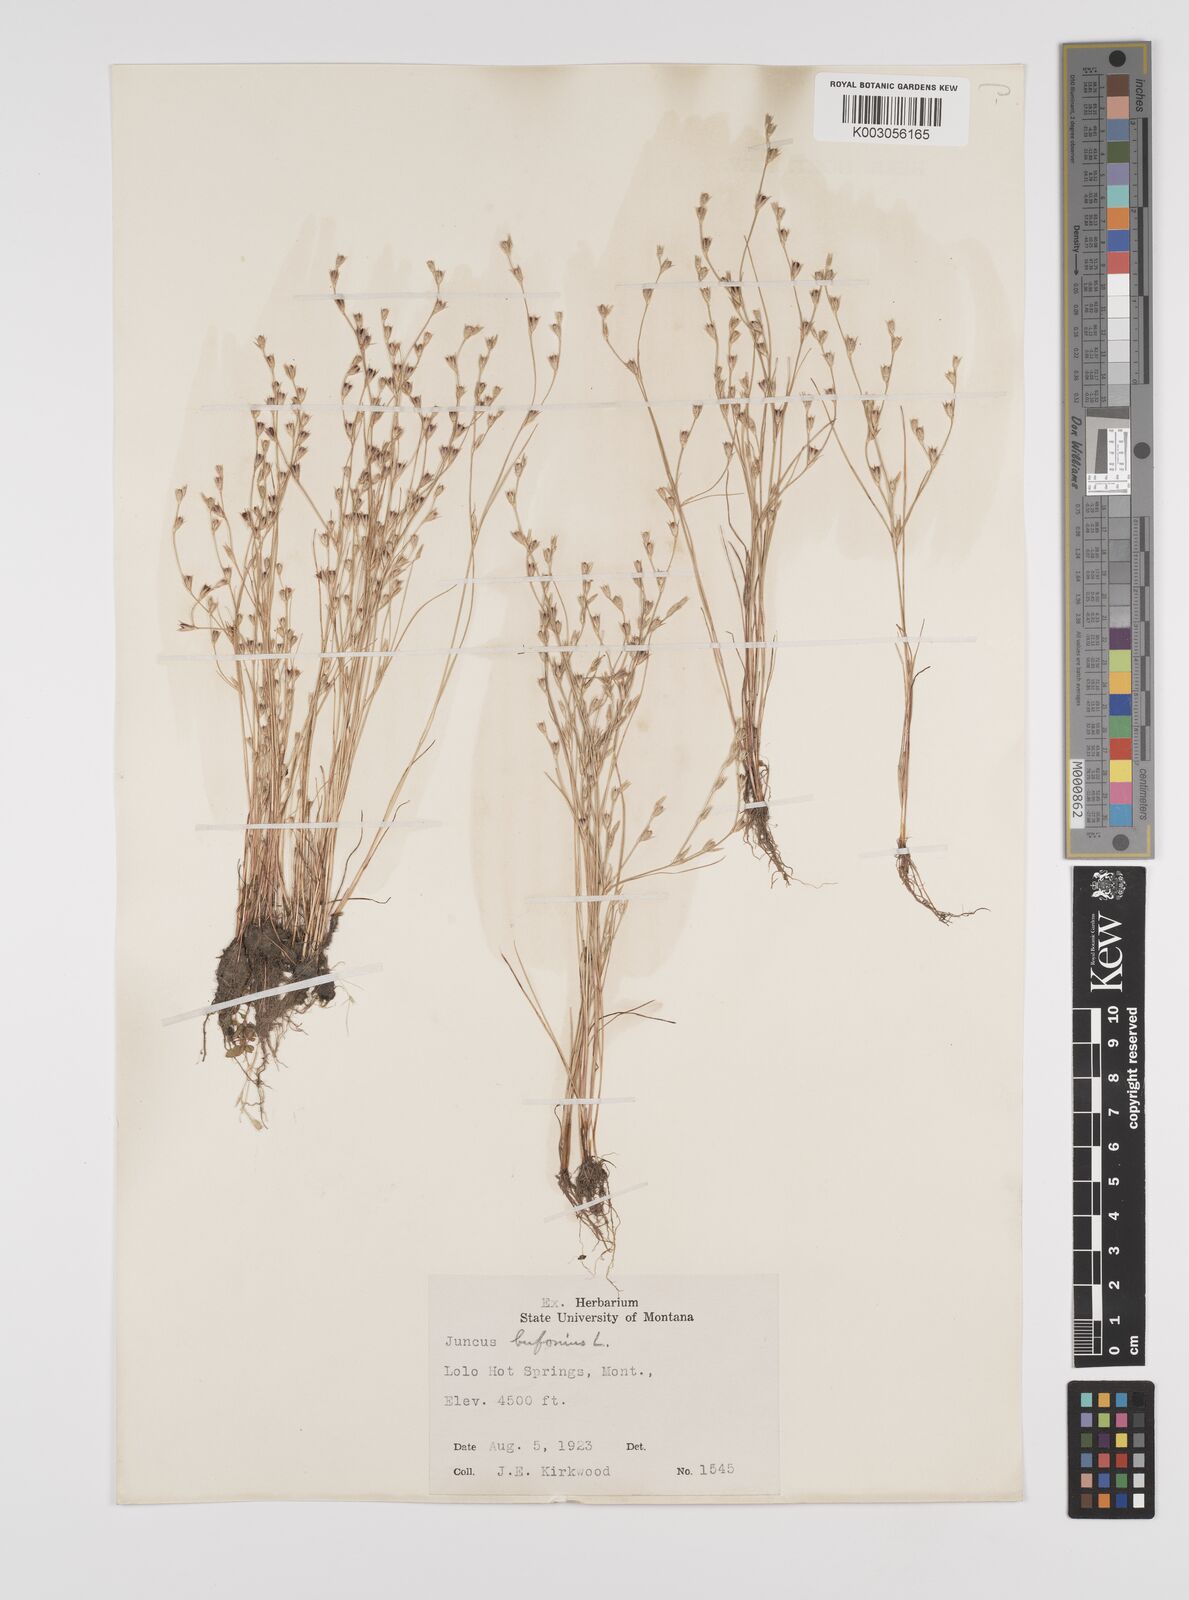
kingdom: Plantae
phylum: Tracheophyta
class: Liliopsida
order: Poales
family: Juncaceae
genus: Juncus
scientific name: Juncus bufonius
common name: Toad rush
